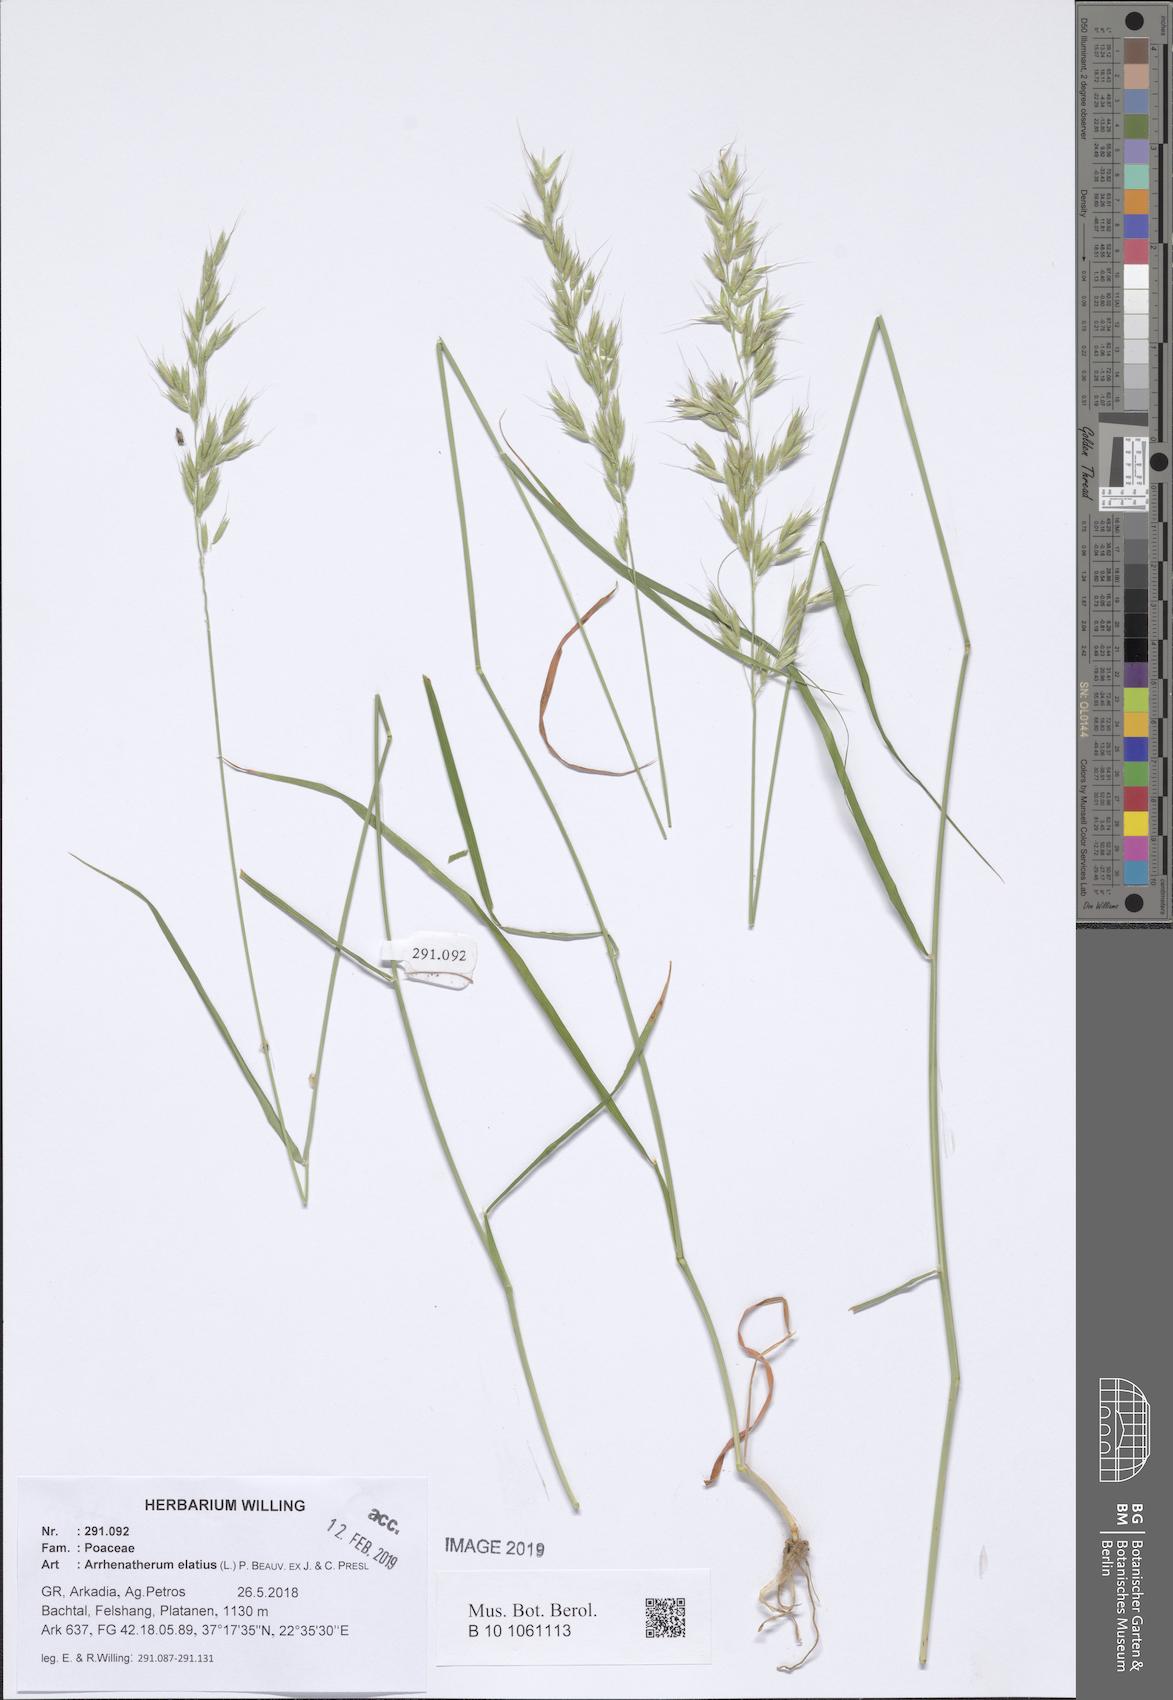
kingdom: Plantae
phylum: Tracheophyta
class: Liliopsida
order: Poales
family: Poaceae
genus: Arrhenatherum
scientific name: Arrhenatherum elatius
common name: Tall oatgrass
